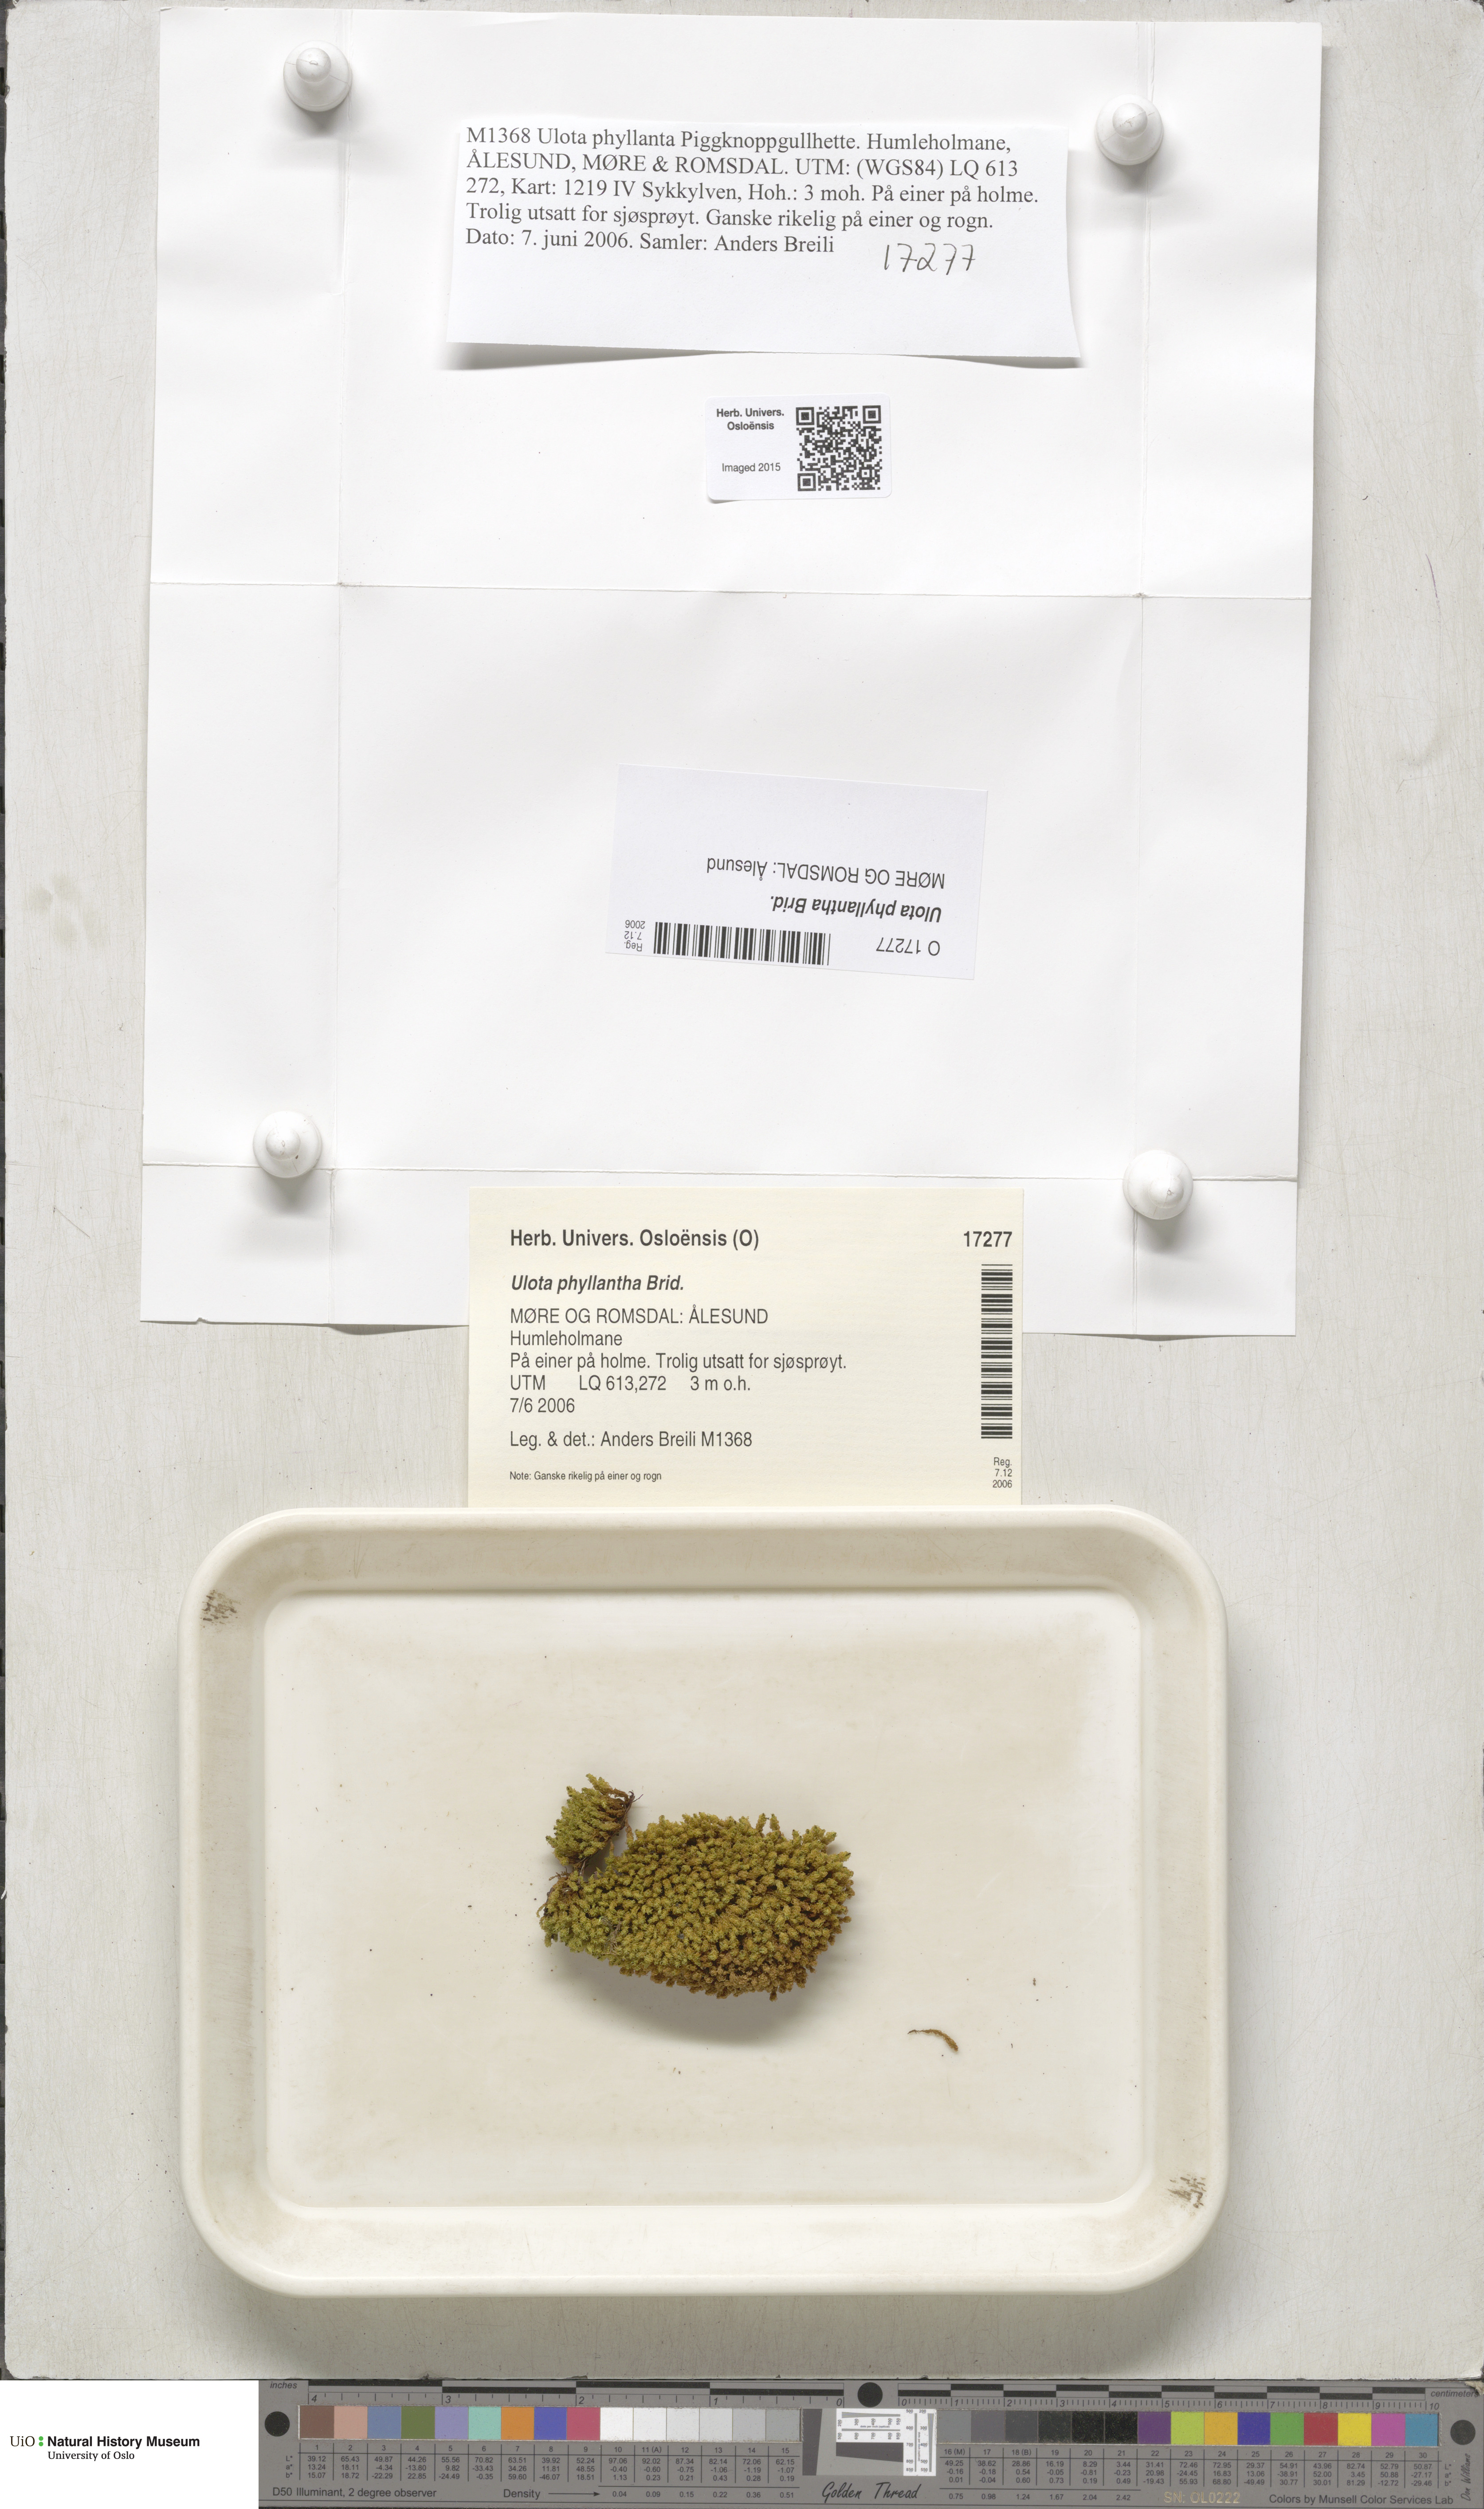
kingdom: Plantae
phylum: Bryophyta
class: Bryopsida
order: Orthotrichales
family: Orthotrichaceae
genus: Plenogemma
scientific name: Plenogemma phyllantha
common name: Frizzled pincushion
